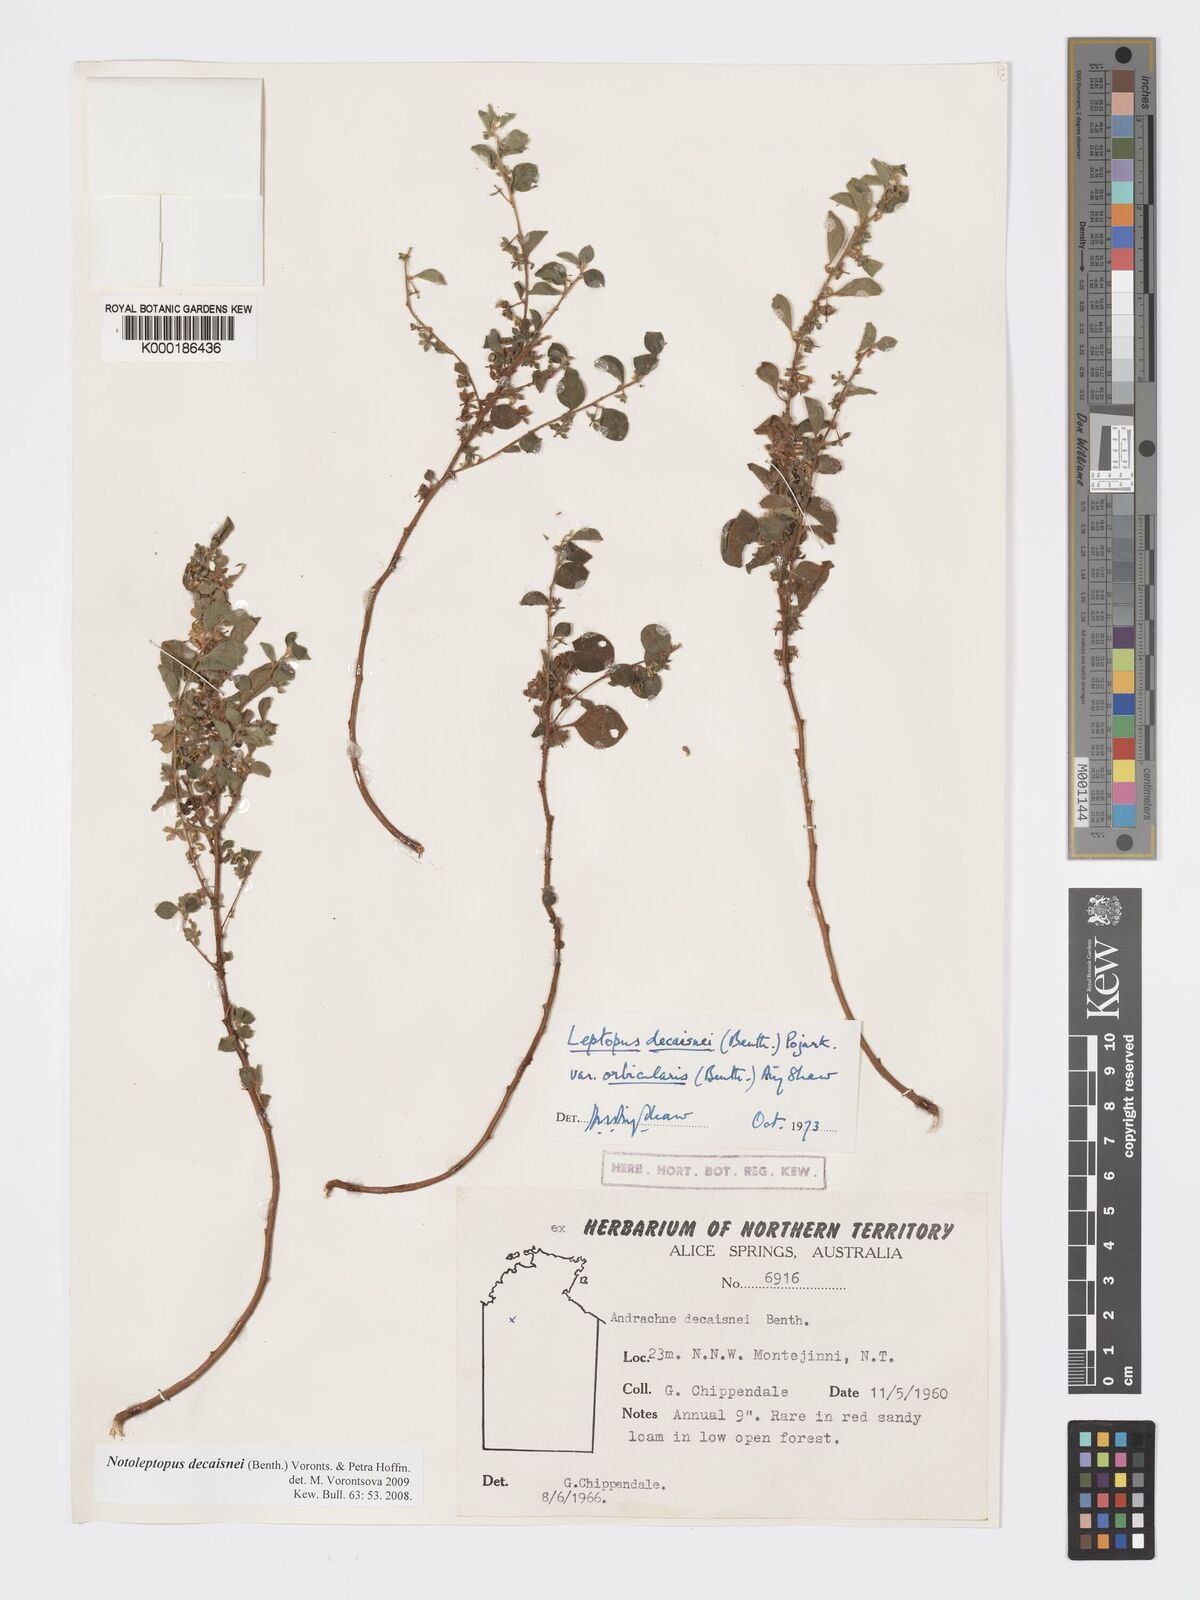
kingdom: Plantae
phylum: Tracheophyta
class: Magnoliopsida
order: Malpighiales
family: Phyllanthaceae
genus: Notoleptopus
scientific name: Notoleptopus decaisnei
